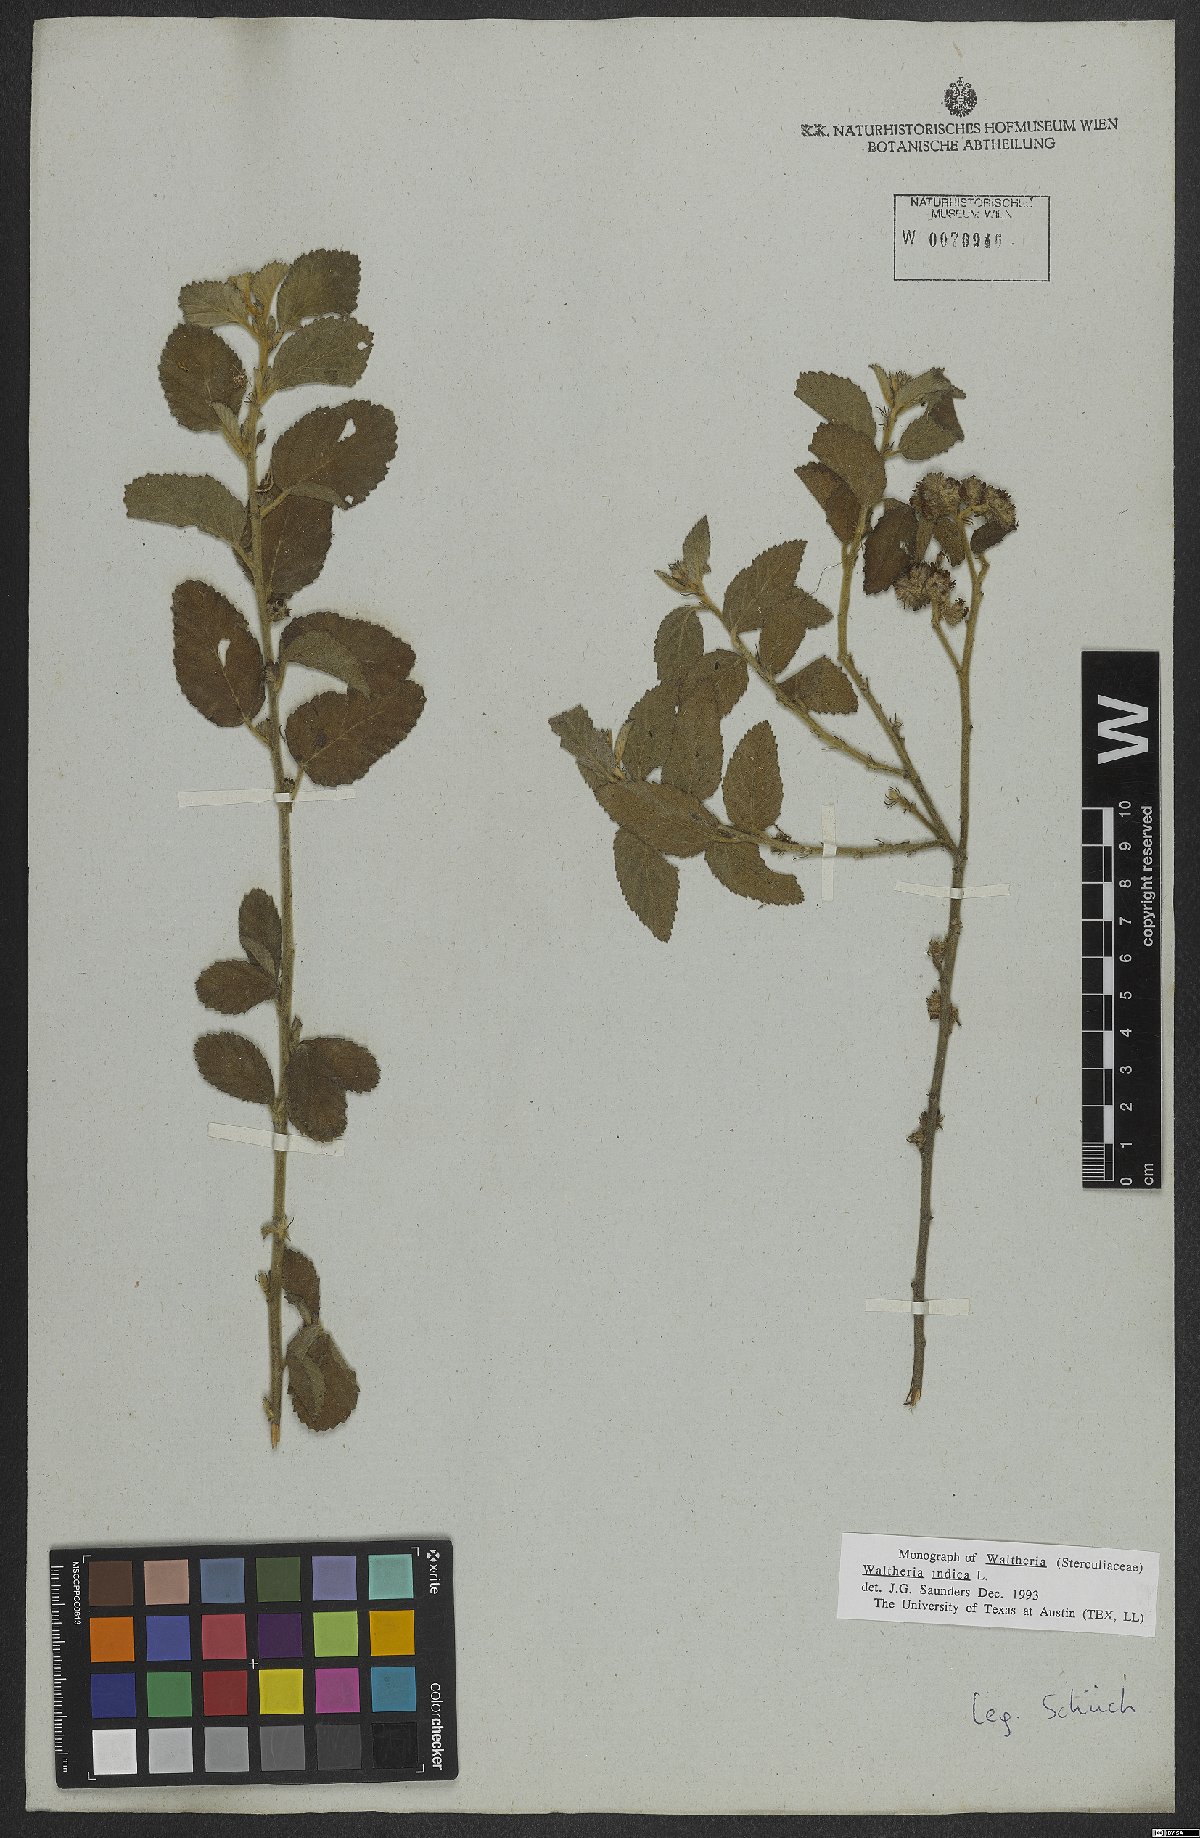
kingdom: Plantae
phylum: Tracheophyta
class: Magnoliopsida
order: Malvales
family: Malvaceae
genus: Waltheria
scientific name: Waltheria indica
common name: Leather-coat
